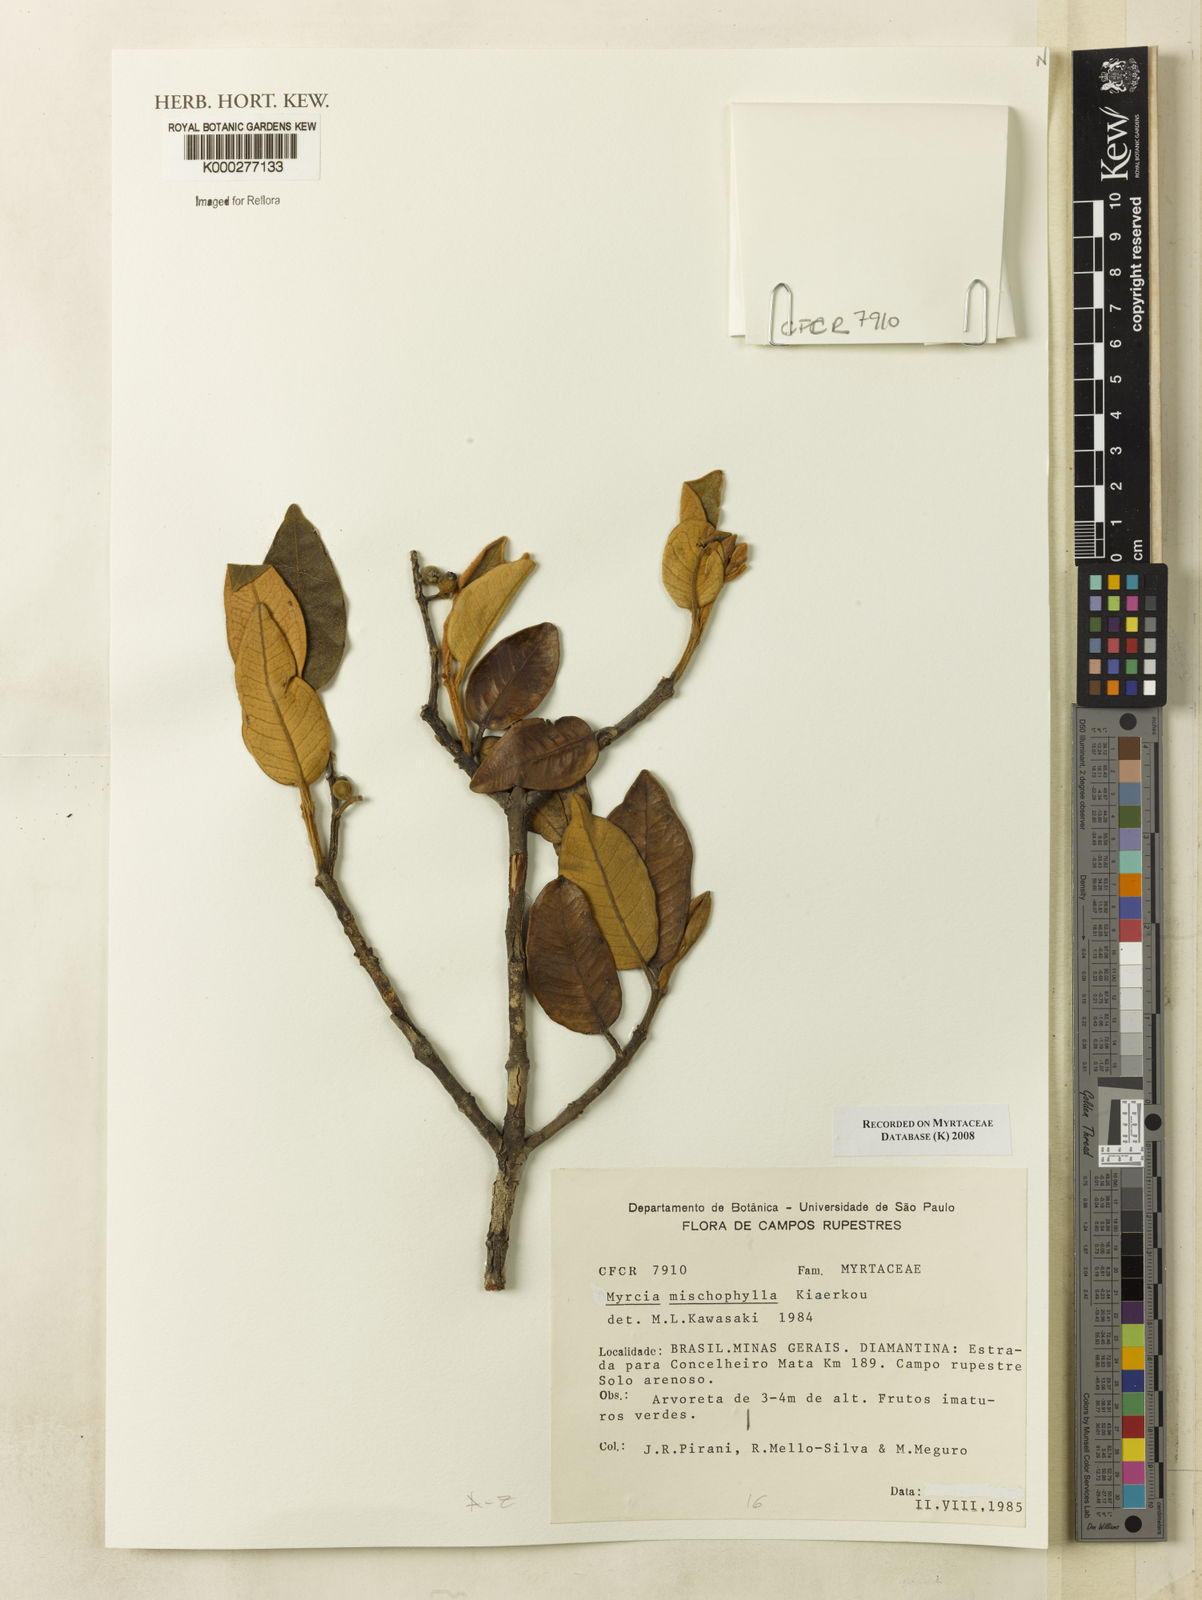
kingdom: Plantae
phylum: Tracheophyta
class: Magnoliopsida
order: Myrtales
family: Myrtaceae
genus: Myrcia
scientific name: Myrcia mischophylla
